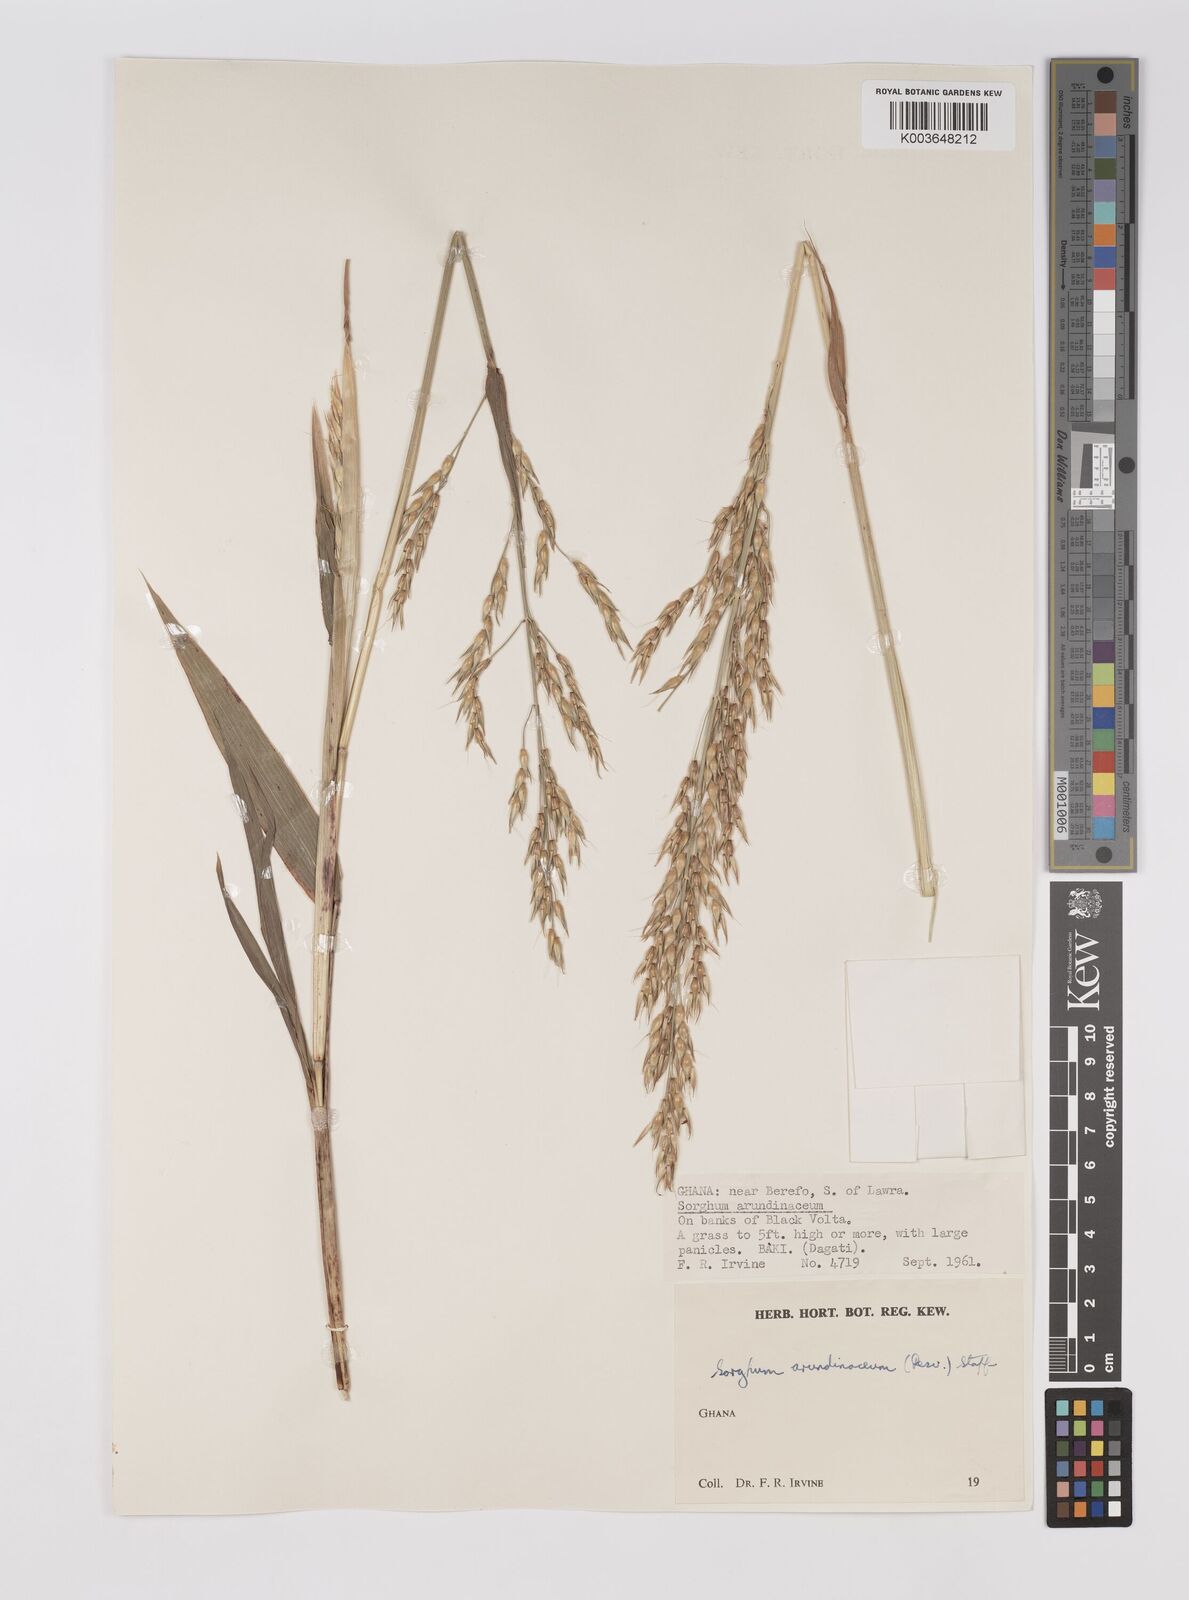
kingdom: Plantae
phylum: Tracheophyta
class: Liliopsida
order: Poales
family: Poaceae
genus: Sorghum
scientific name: Sorghum arundinaceum
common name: Sorghum
